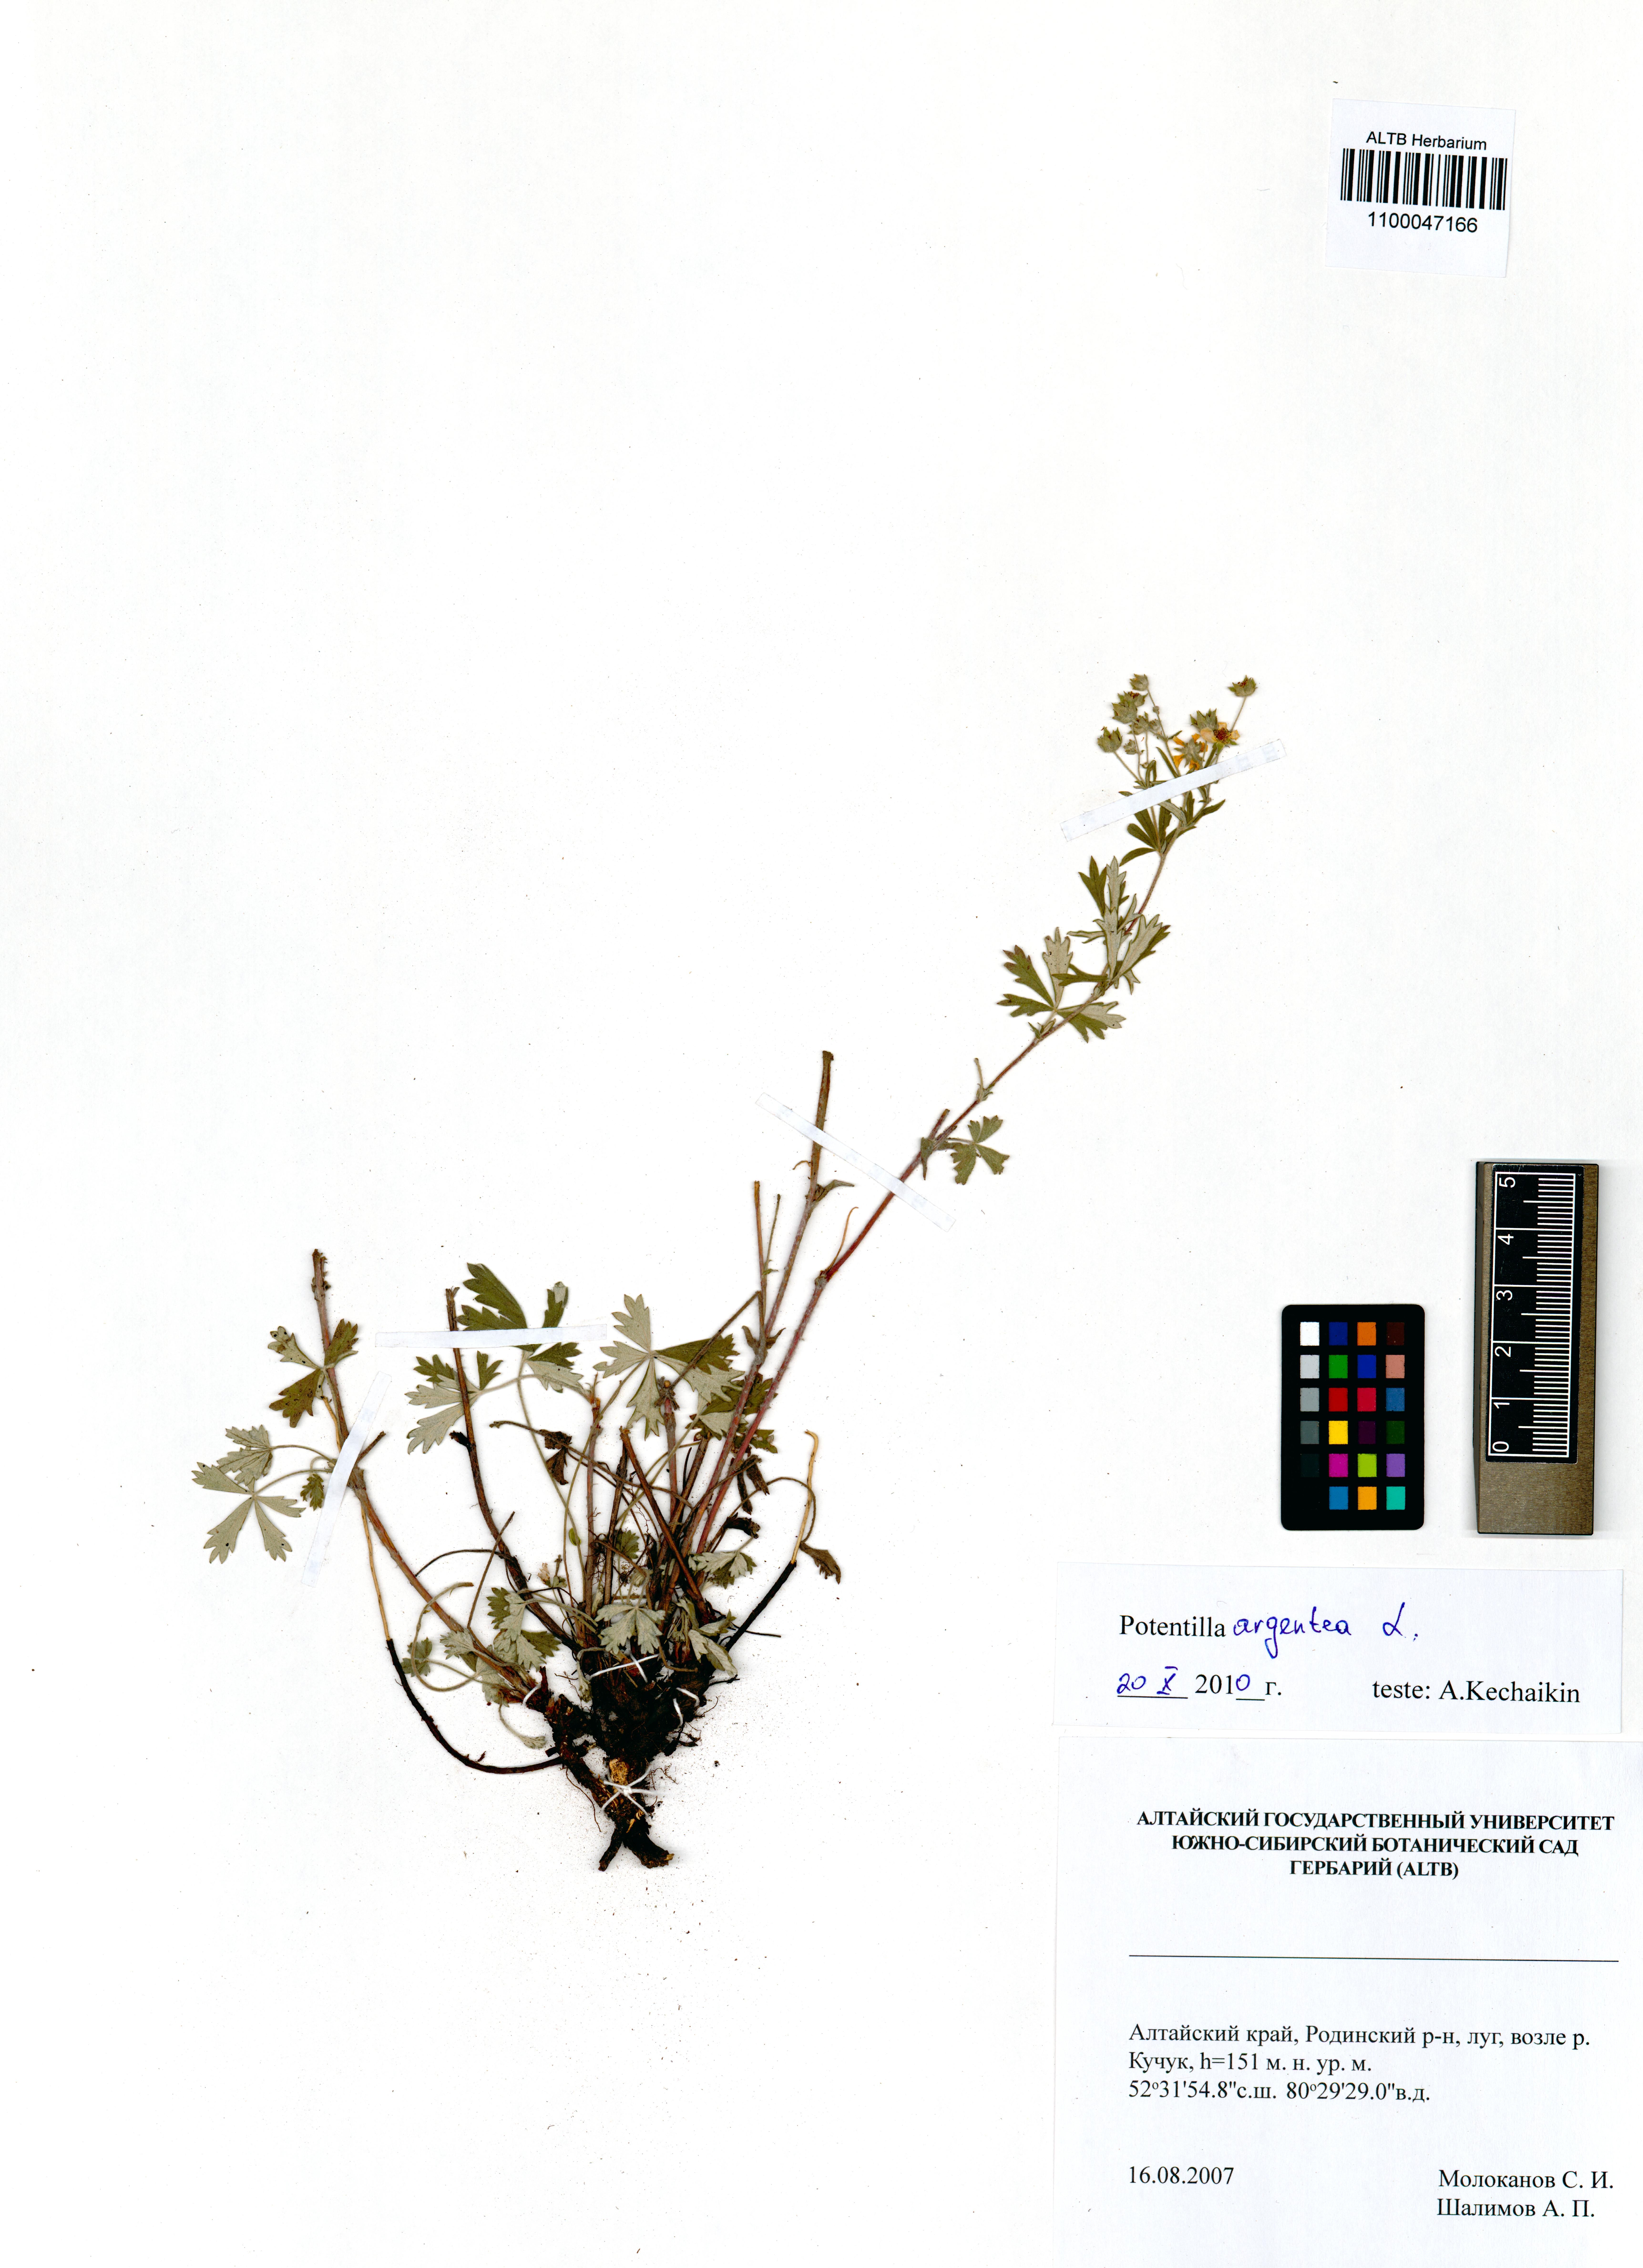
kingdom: Plantae
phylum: Tracheophyta
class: Magnoliopsida
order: Rosales
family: Rosaceae
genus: Potentilla
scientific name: Potentilla argentea
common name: Hoary cinquefoil
